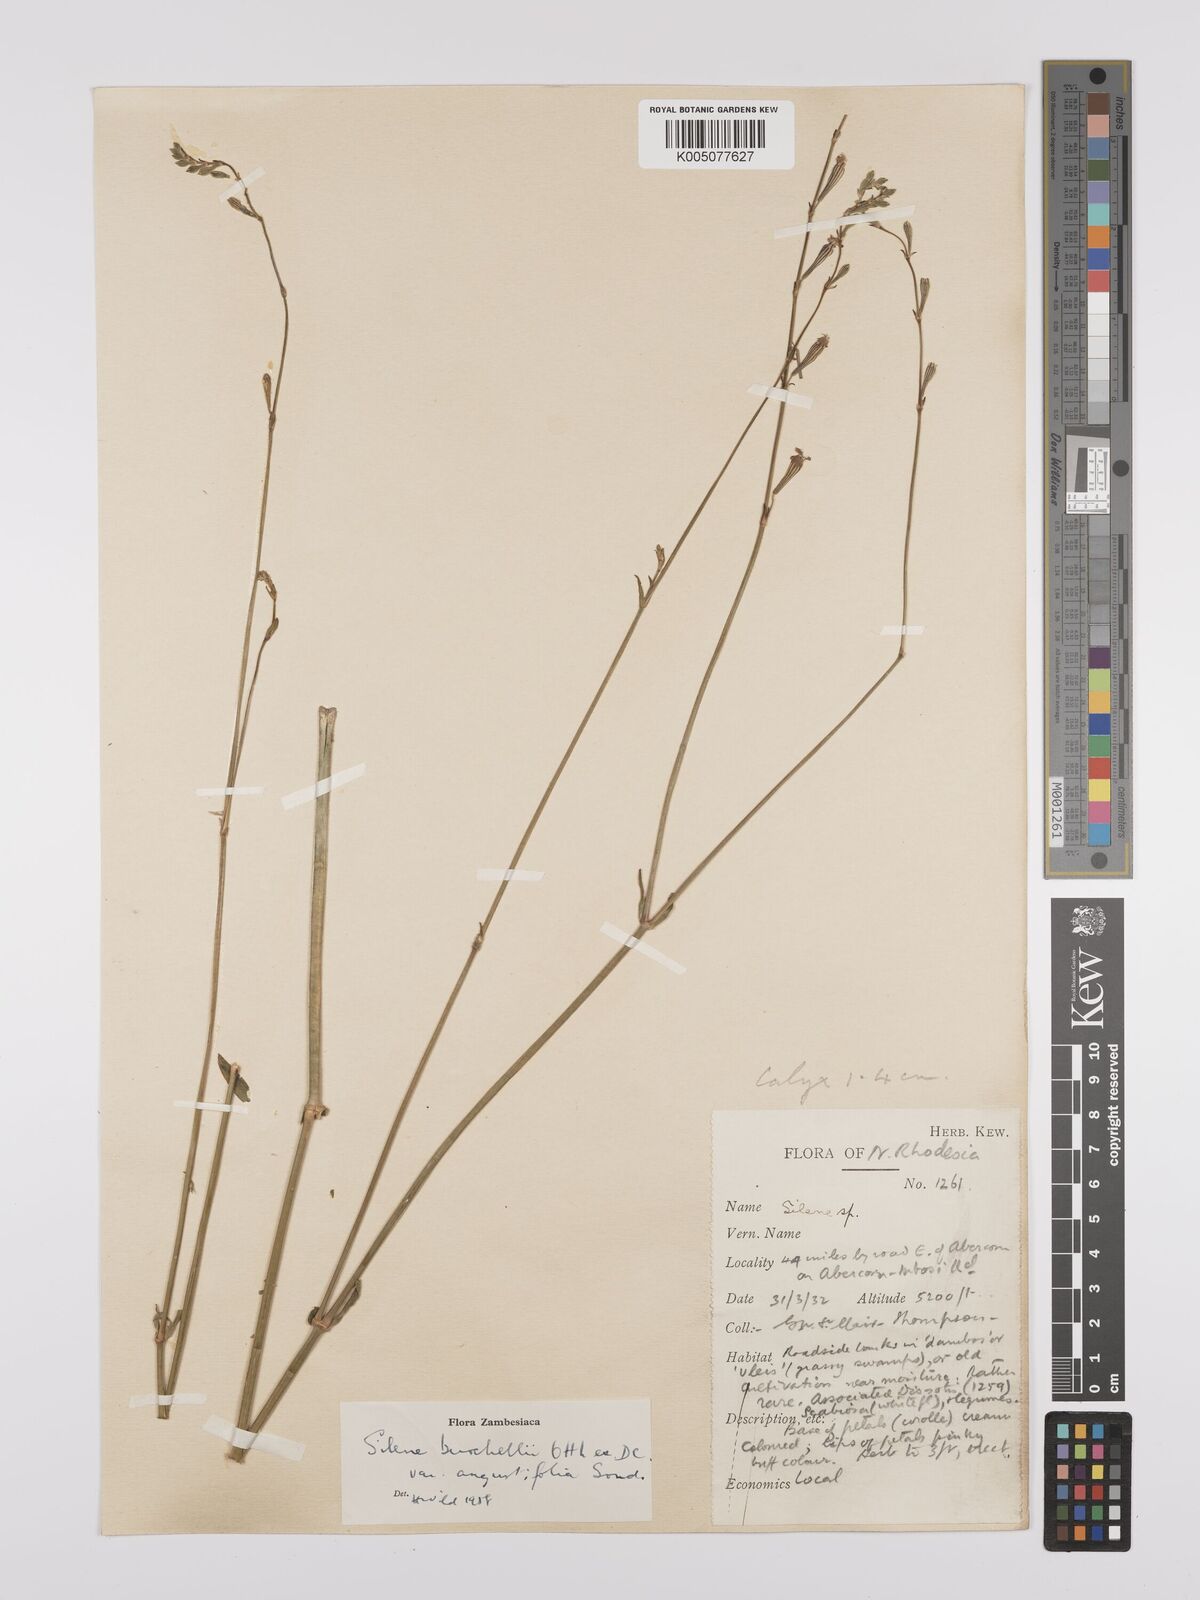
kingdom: Plantae
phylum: Tracheophyta
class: Magnoliopsida
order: Caryophyllales
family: Caryophyllaceae
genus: Silene
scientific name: Silene burchellii
